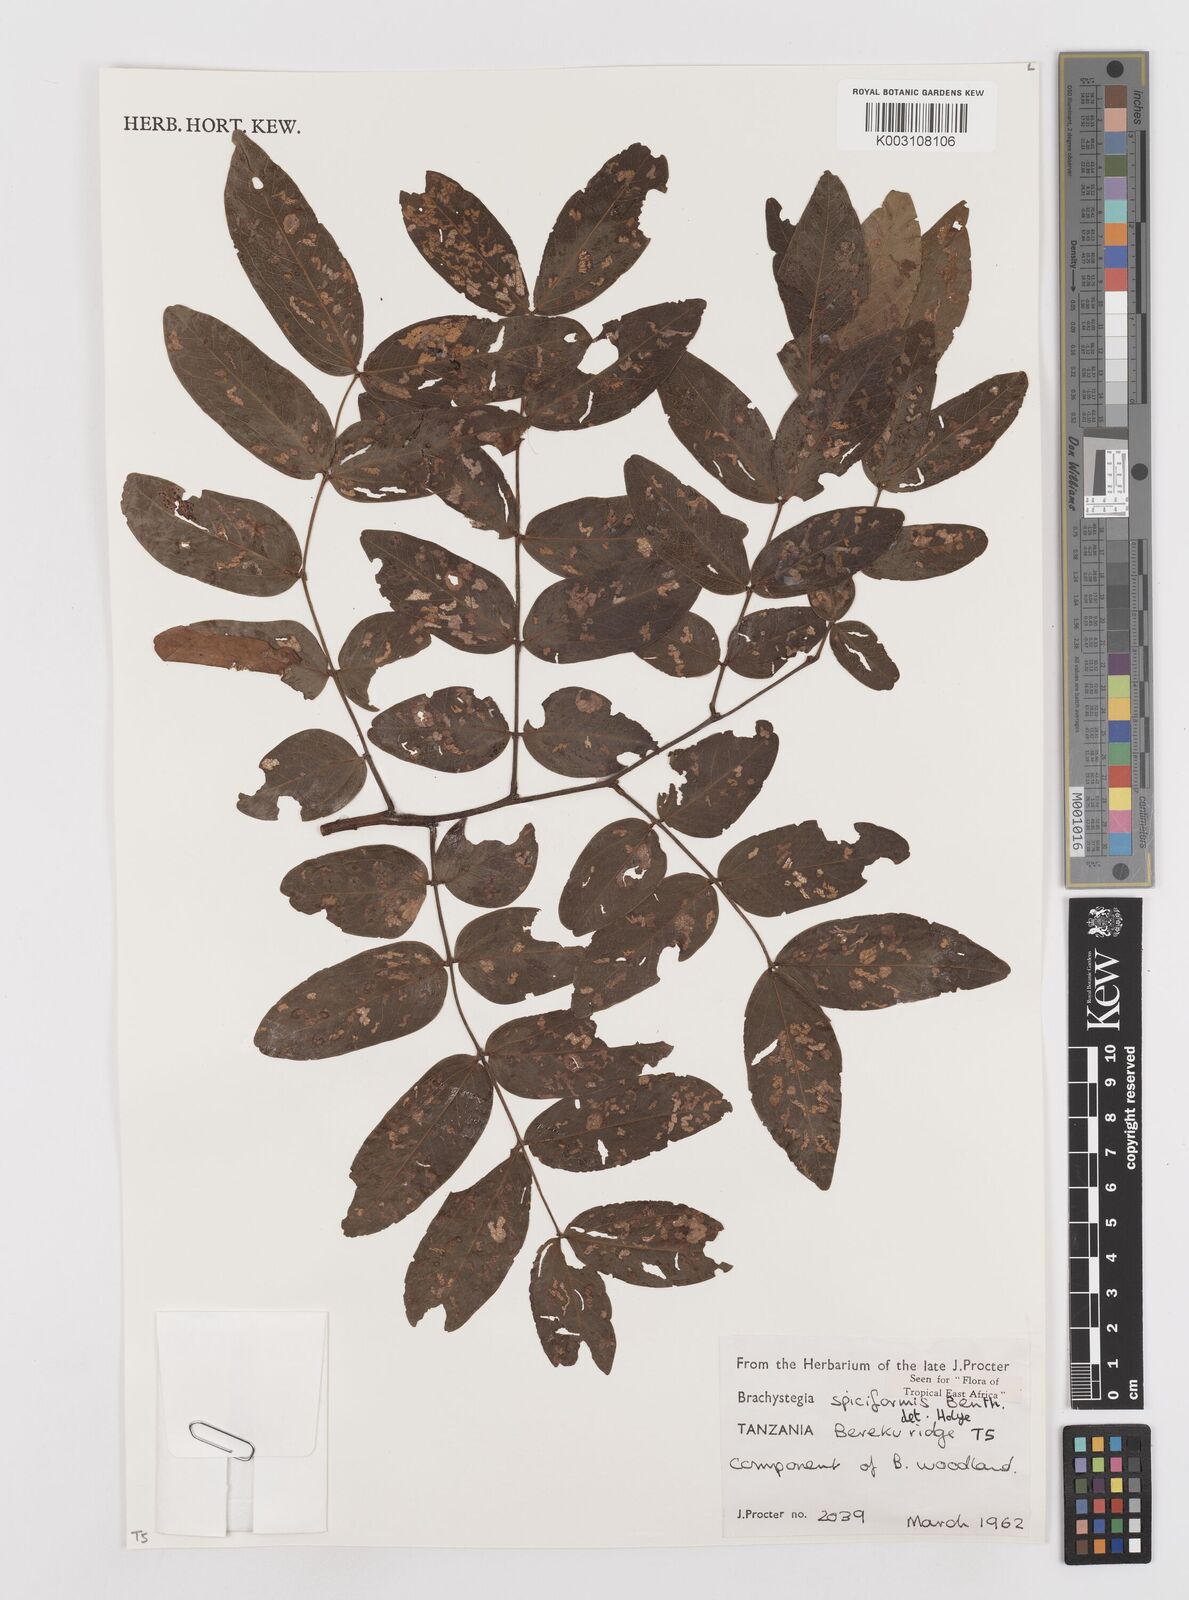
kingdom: Plantae
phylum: Tracheophyta
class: Magnoliopsida
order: Fabales
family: Fabaceae
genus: Brachystegia
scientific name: Brachystegia spiciformis
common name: Zebrawood
